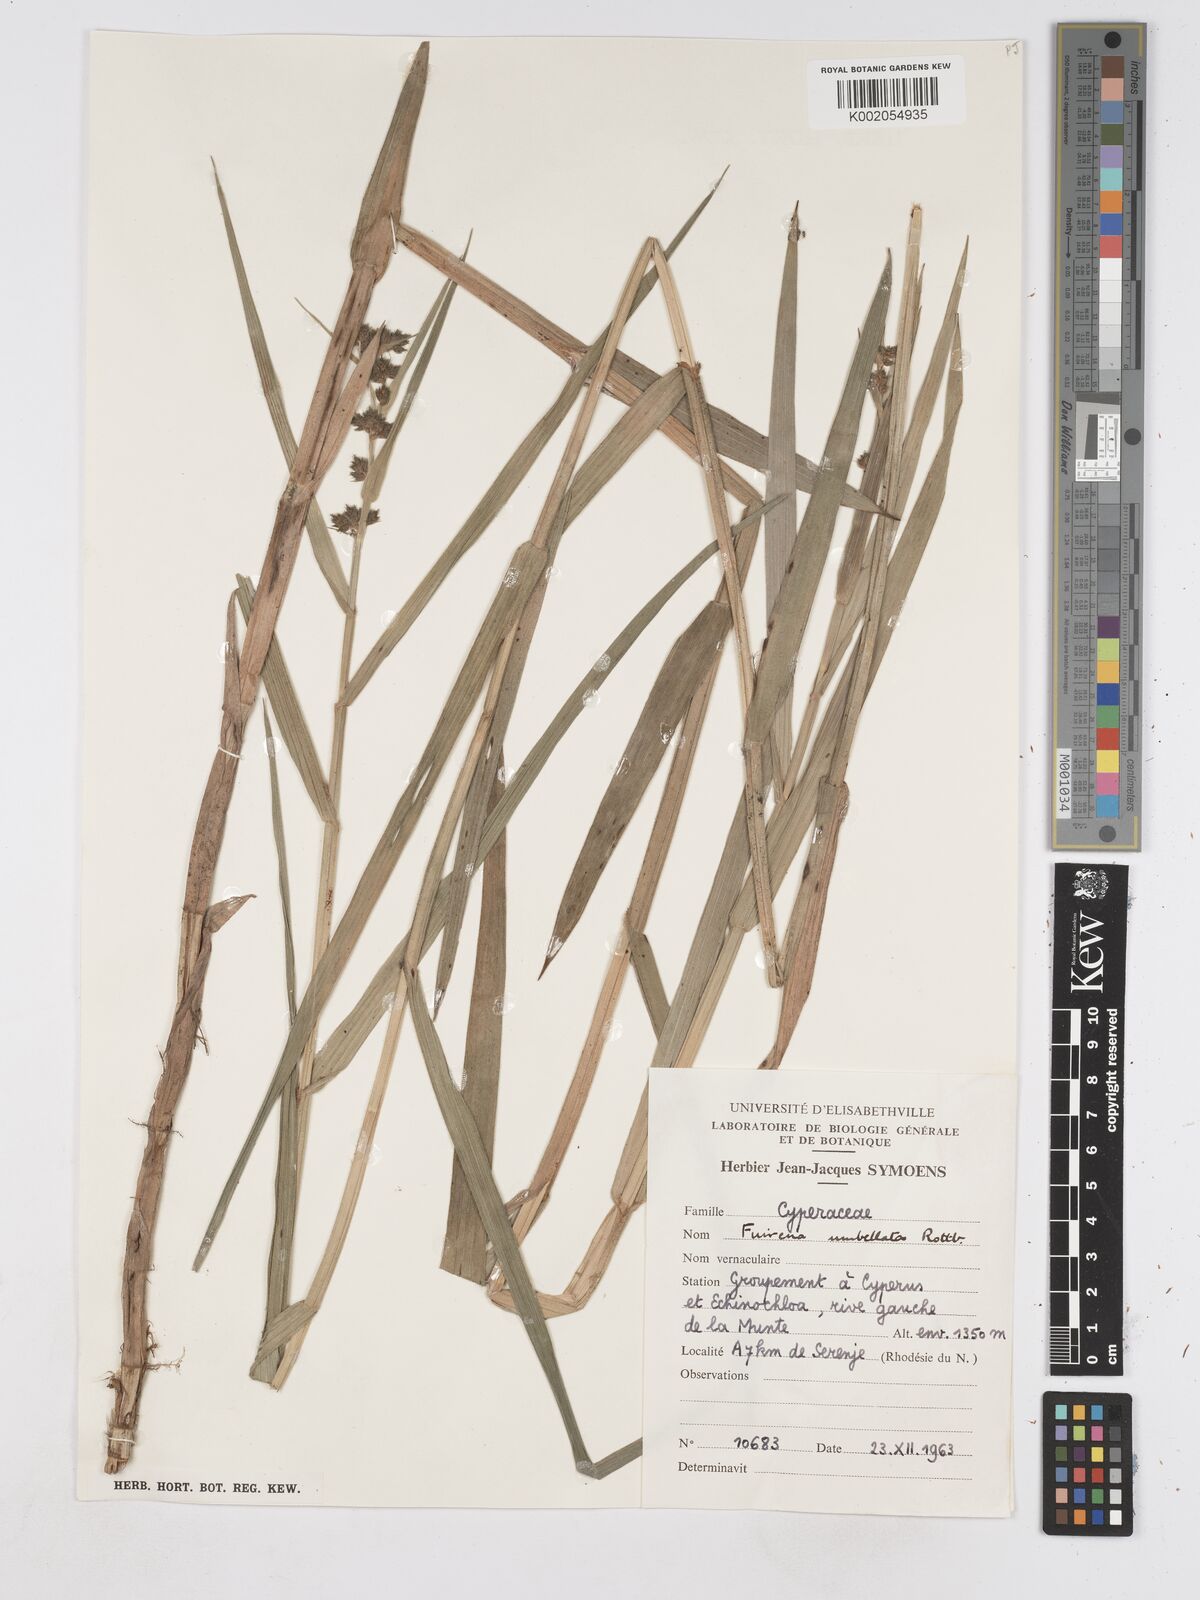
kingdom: Plantae
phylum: Tracheophyta
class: Liliopsida
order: Poales
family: Cyperaceae
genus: Fuirena
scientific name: Fuirena umbellata
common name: Yefen
